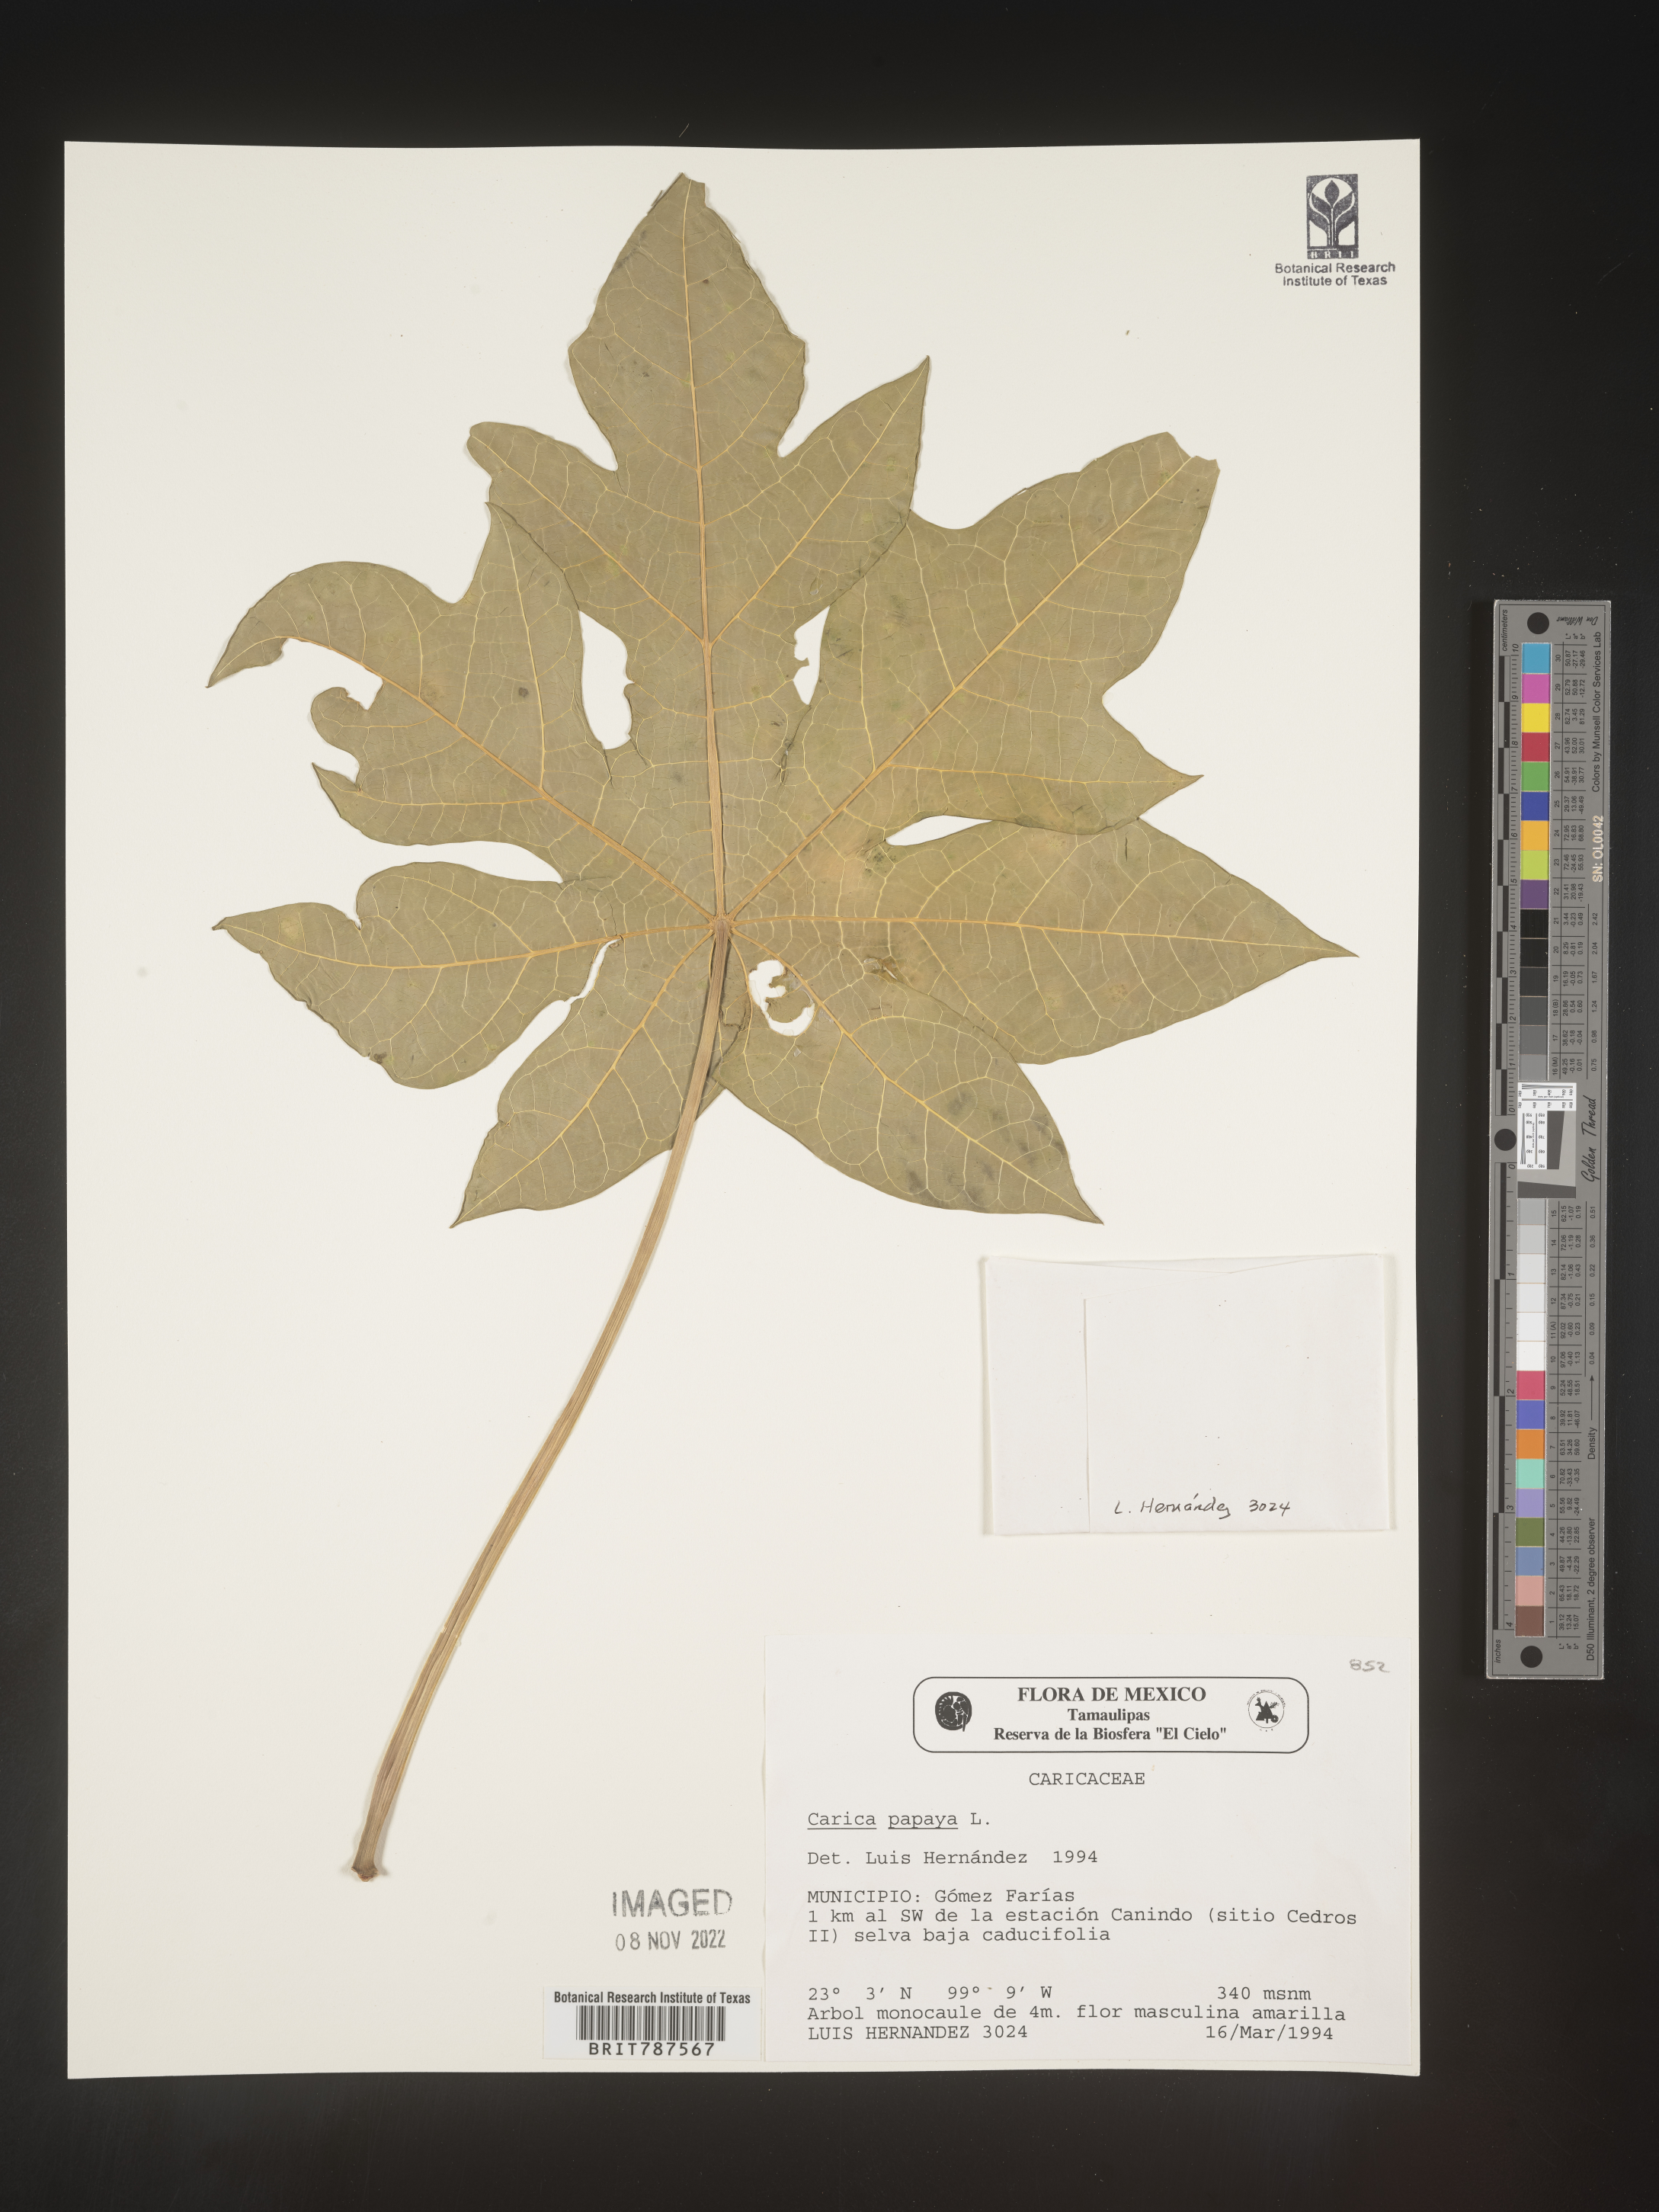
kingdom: Plantae
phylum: Tracheophyta
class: Magnoliopsida
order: Brassicales
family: Caricaceae
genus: Carica
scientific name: Carica
